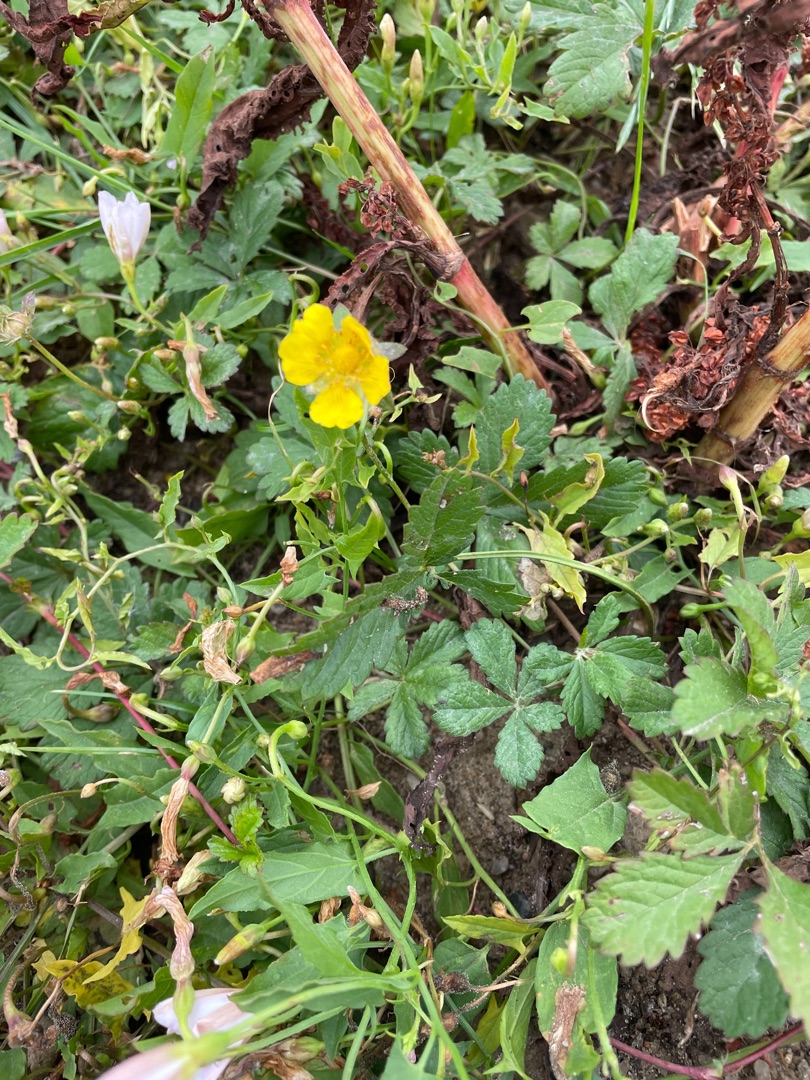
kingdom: Plantae
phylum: Tracheophyta
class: Magnoliopsida
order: Rosales
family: Rosaceae
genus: Potentilla
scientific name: Potentilla reptans
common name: Krybende potentil
